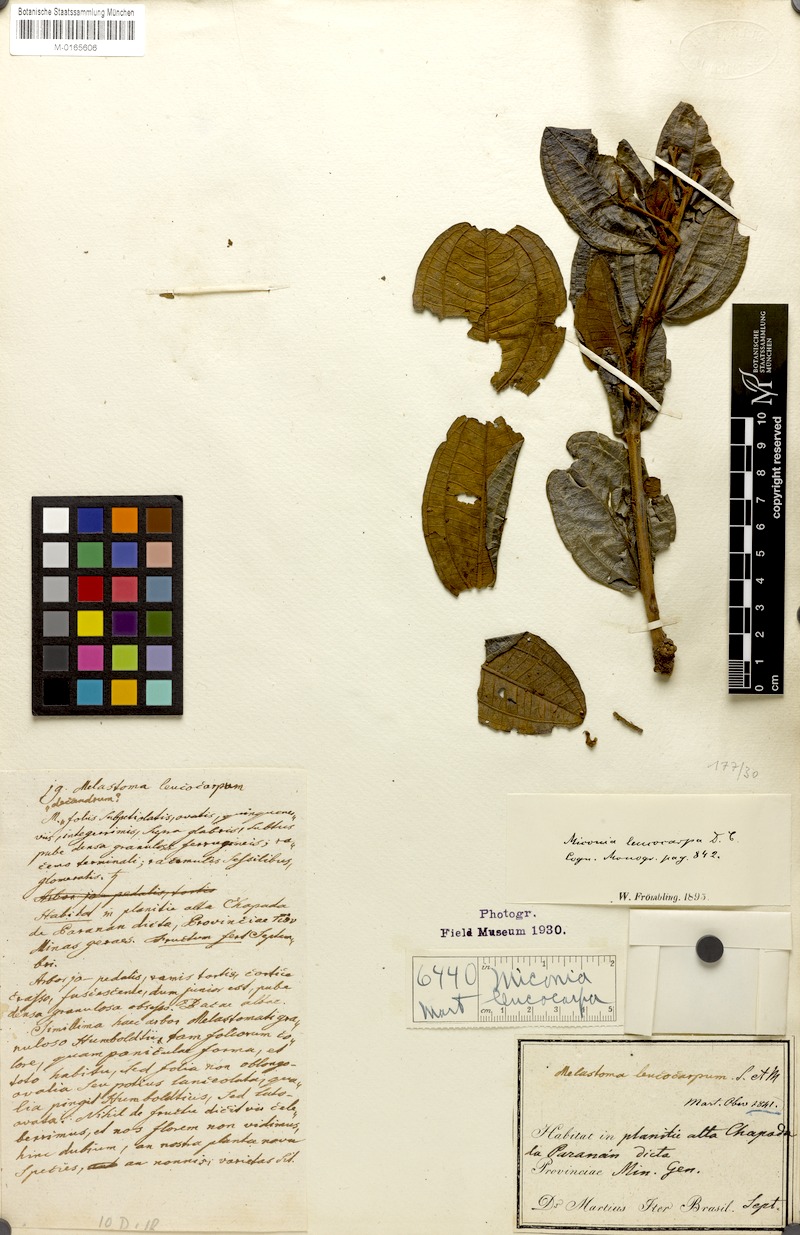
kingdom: Plantae
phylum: Tracheophyta
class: Magnoliopsida
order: Myrtales
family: Melastomataceae
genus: Miconia
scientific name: Miconia leucocarpa
